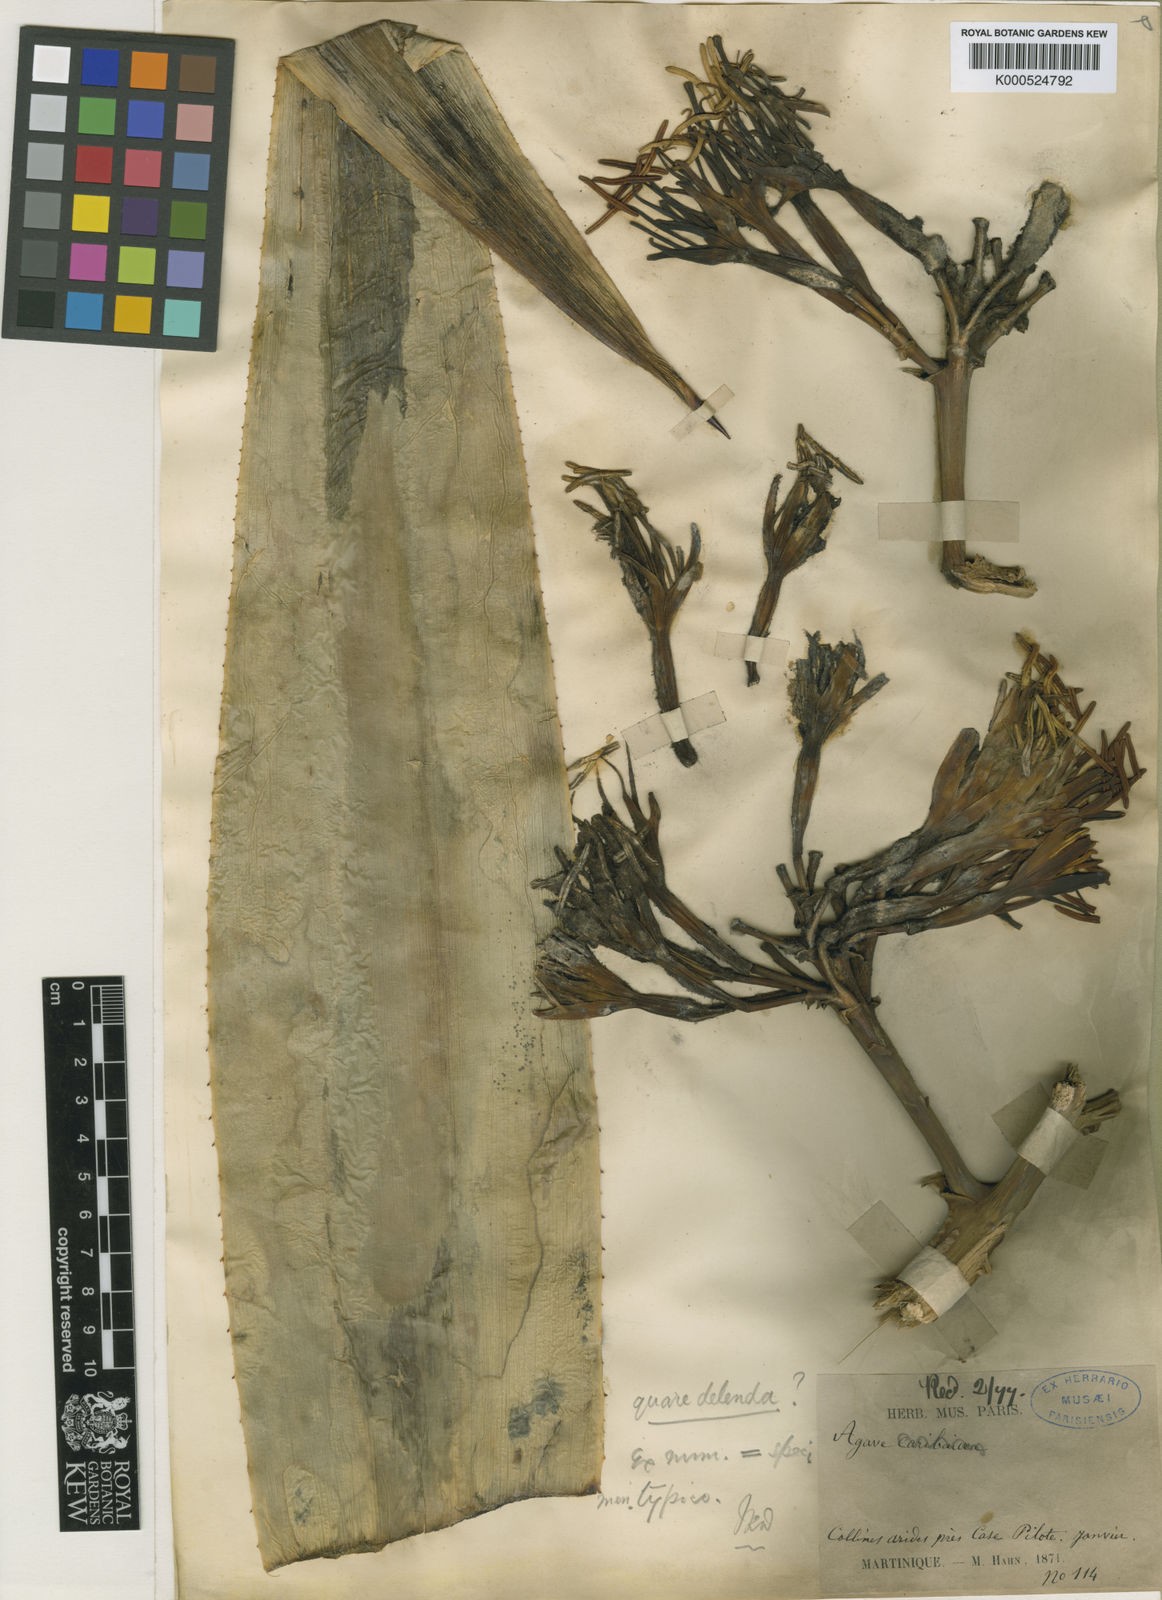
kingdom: Plantae
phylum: Tracheophyta
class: Liliopsida
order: Asparagales
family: Asparagaceae
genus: Agave
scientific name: Agave caribaeicola
